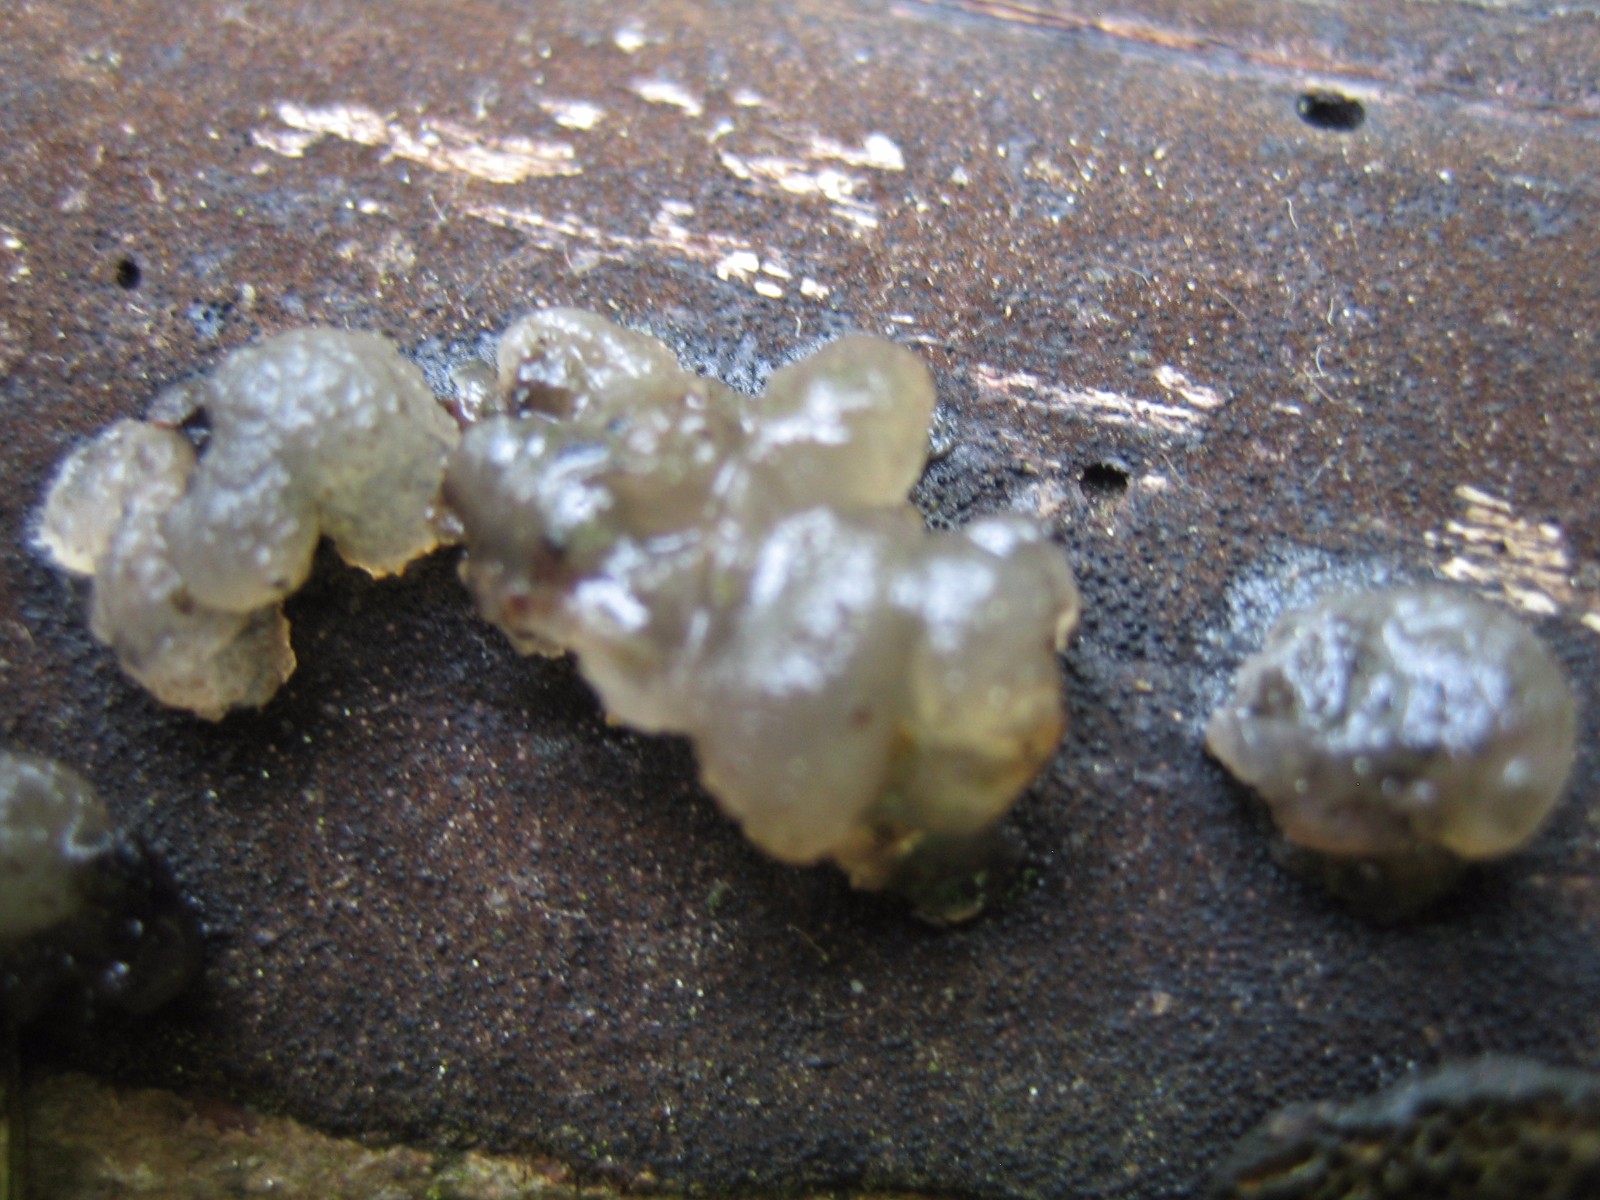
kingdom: Fungi
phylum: Basidiomycota
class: Tremellomycetes
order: Tremellales
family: Exidiaceae
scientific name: Exidiaceae
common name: bævretopfamilien
